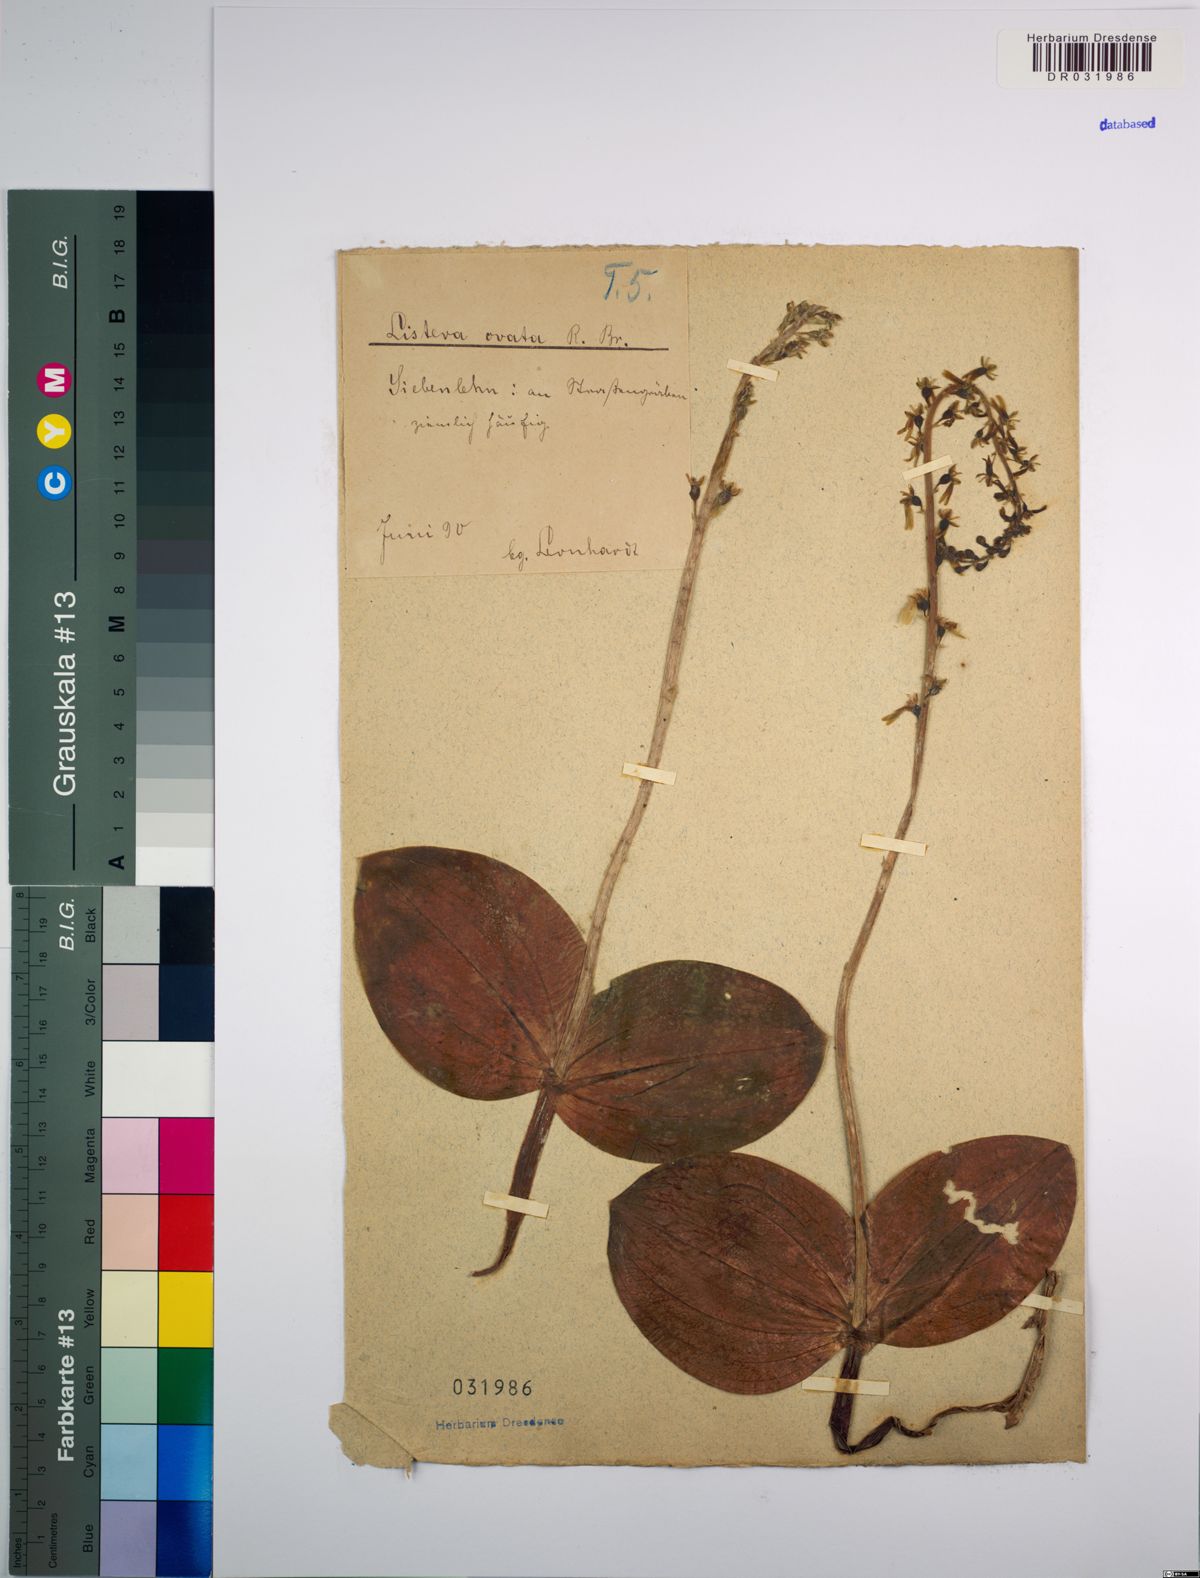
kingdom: Plantae
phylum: Tracheophyta
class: Liliopsida
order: Asparagales
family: Orchidaceae
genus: Neottia
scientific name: Neottia ovata
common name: Common twayblade
